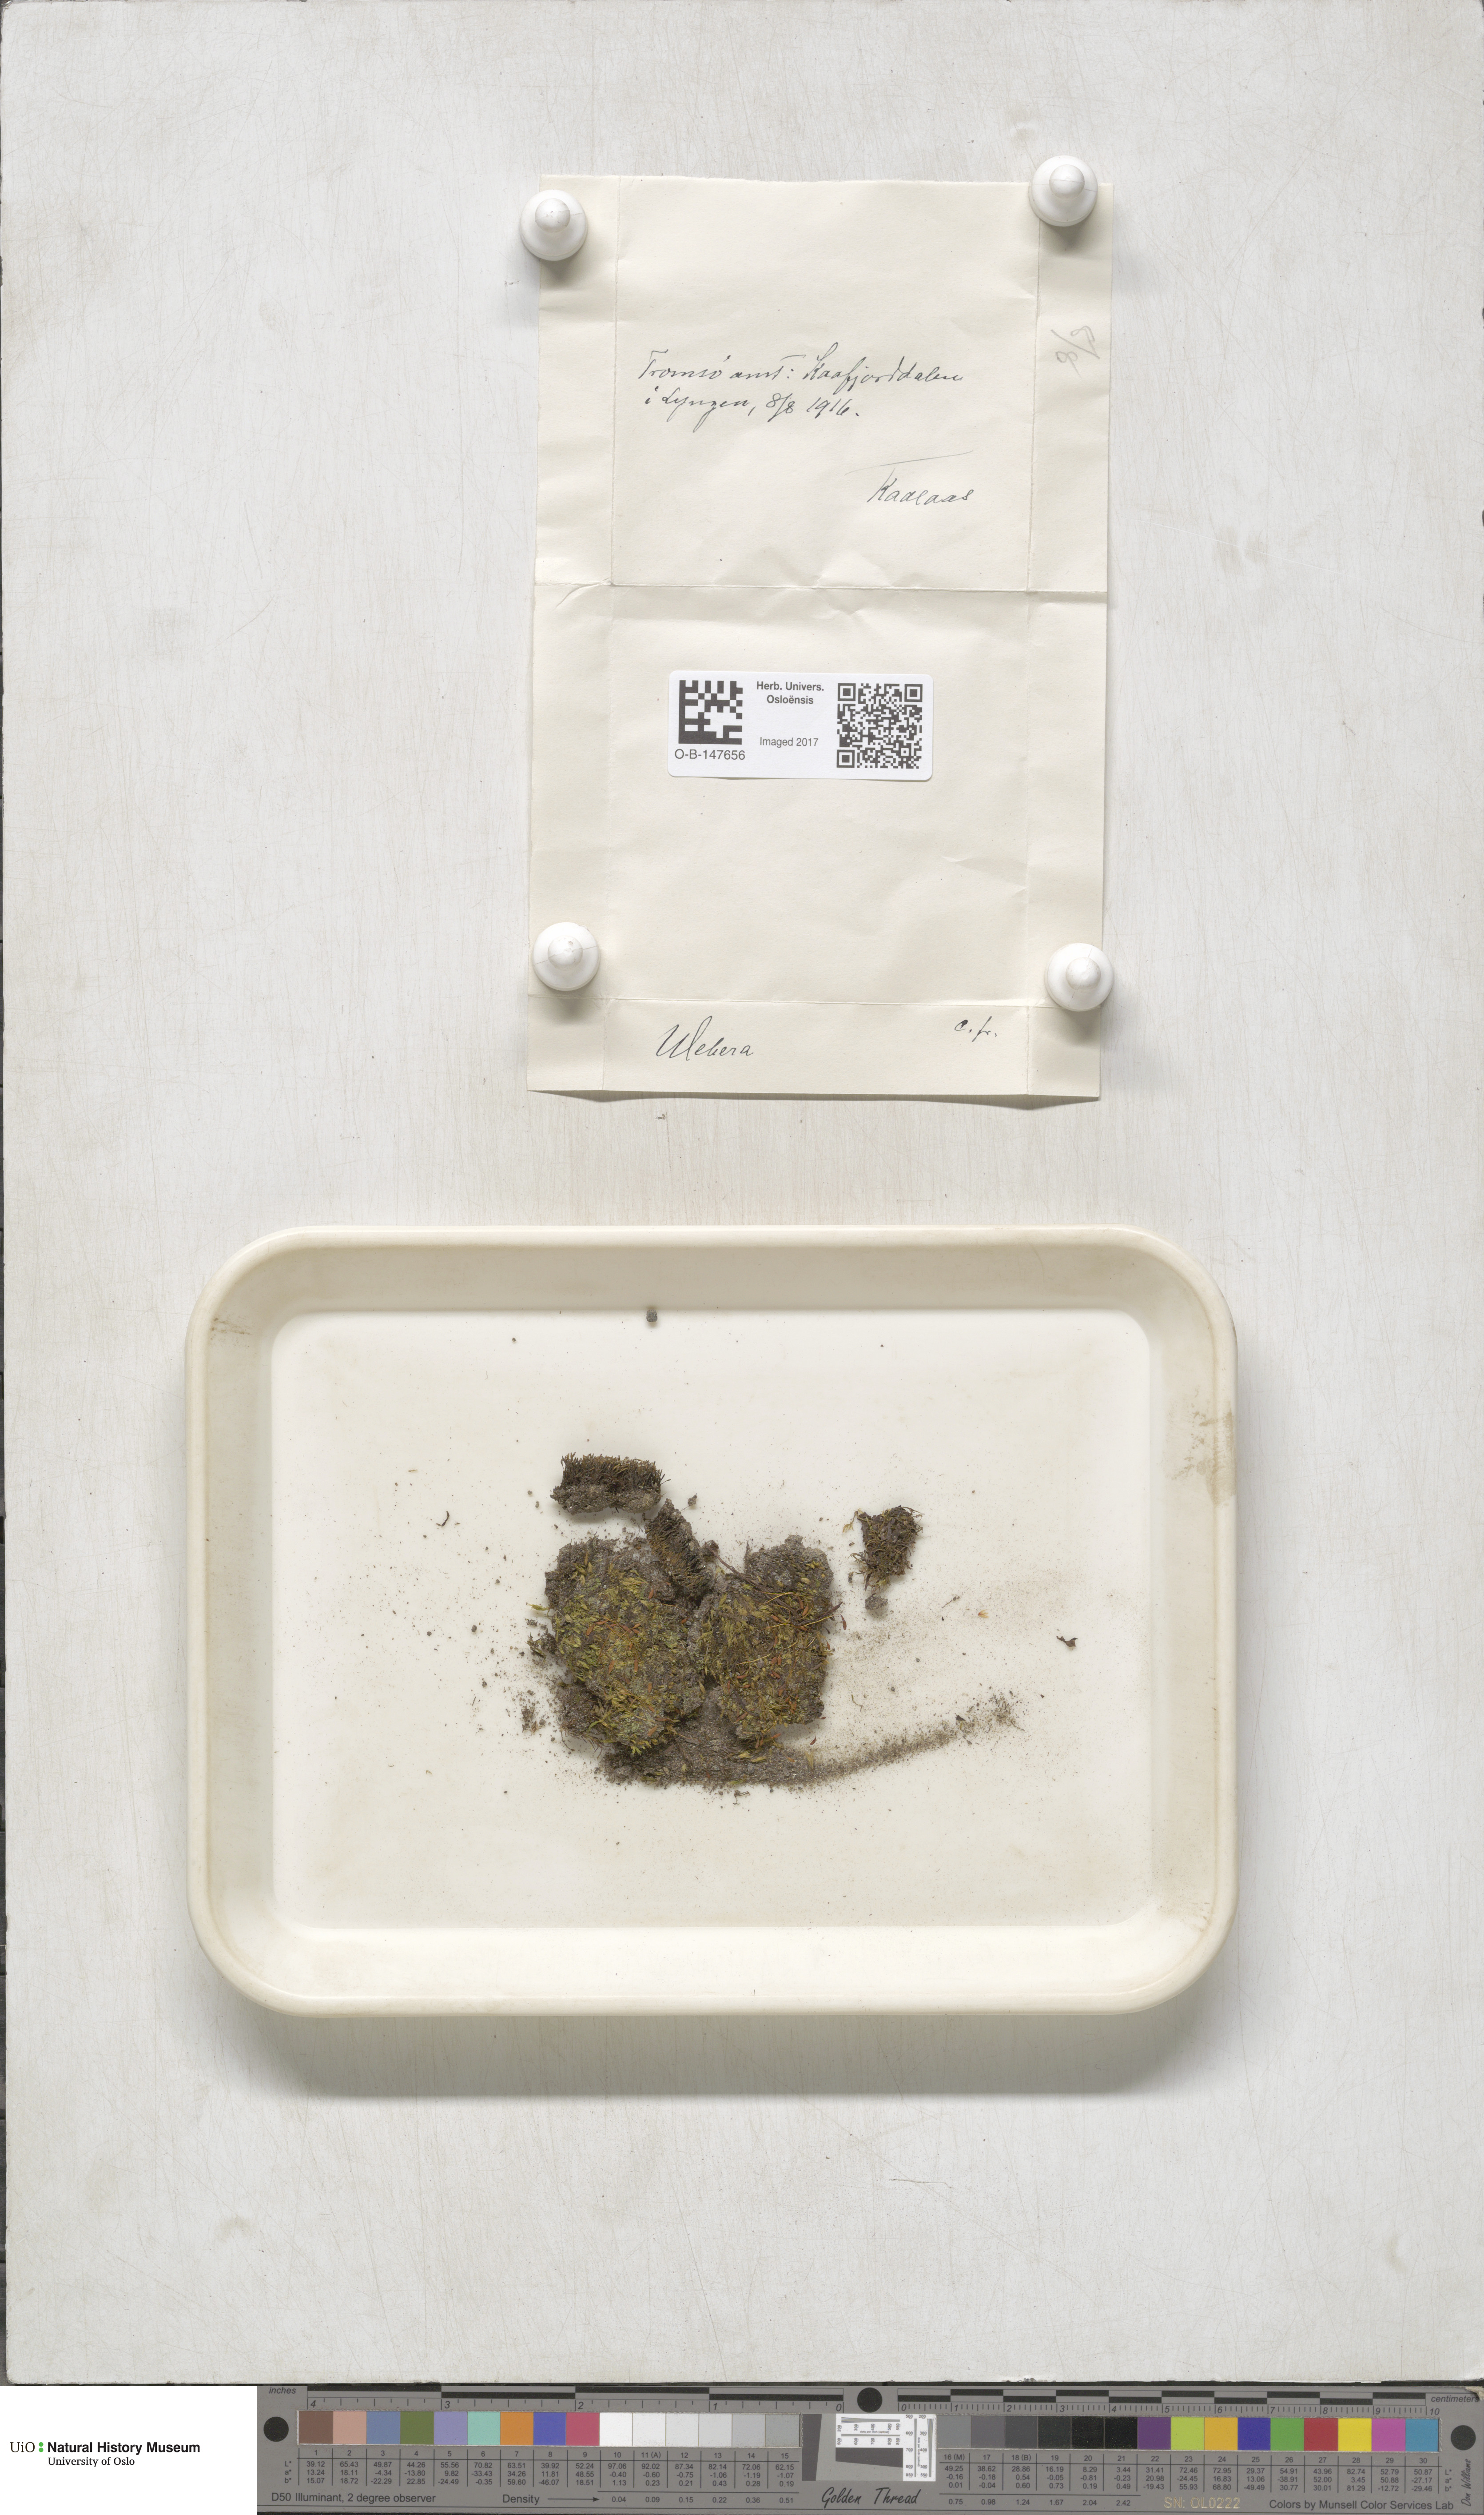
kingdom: Plantae
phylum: Bryophyta
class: Bryopsida
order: Bryales
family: Mniaceae
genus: Pohlia
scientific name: Pohlia
